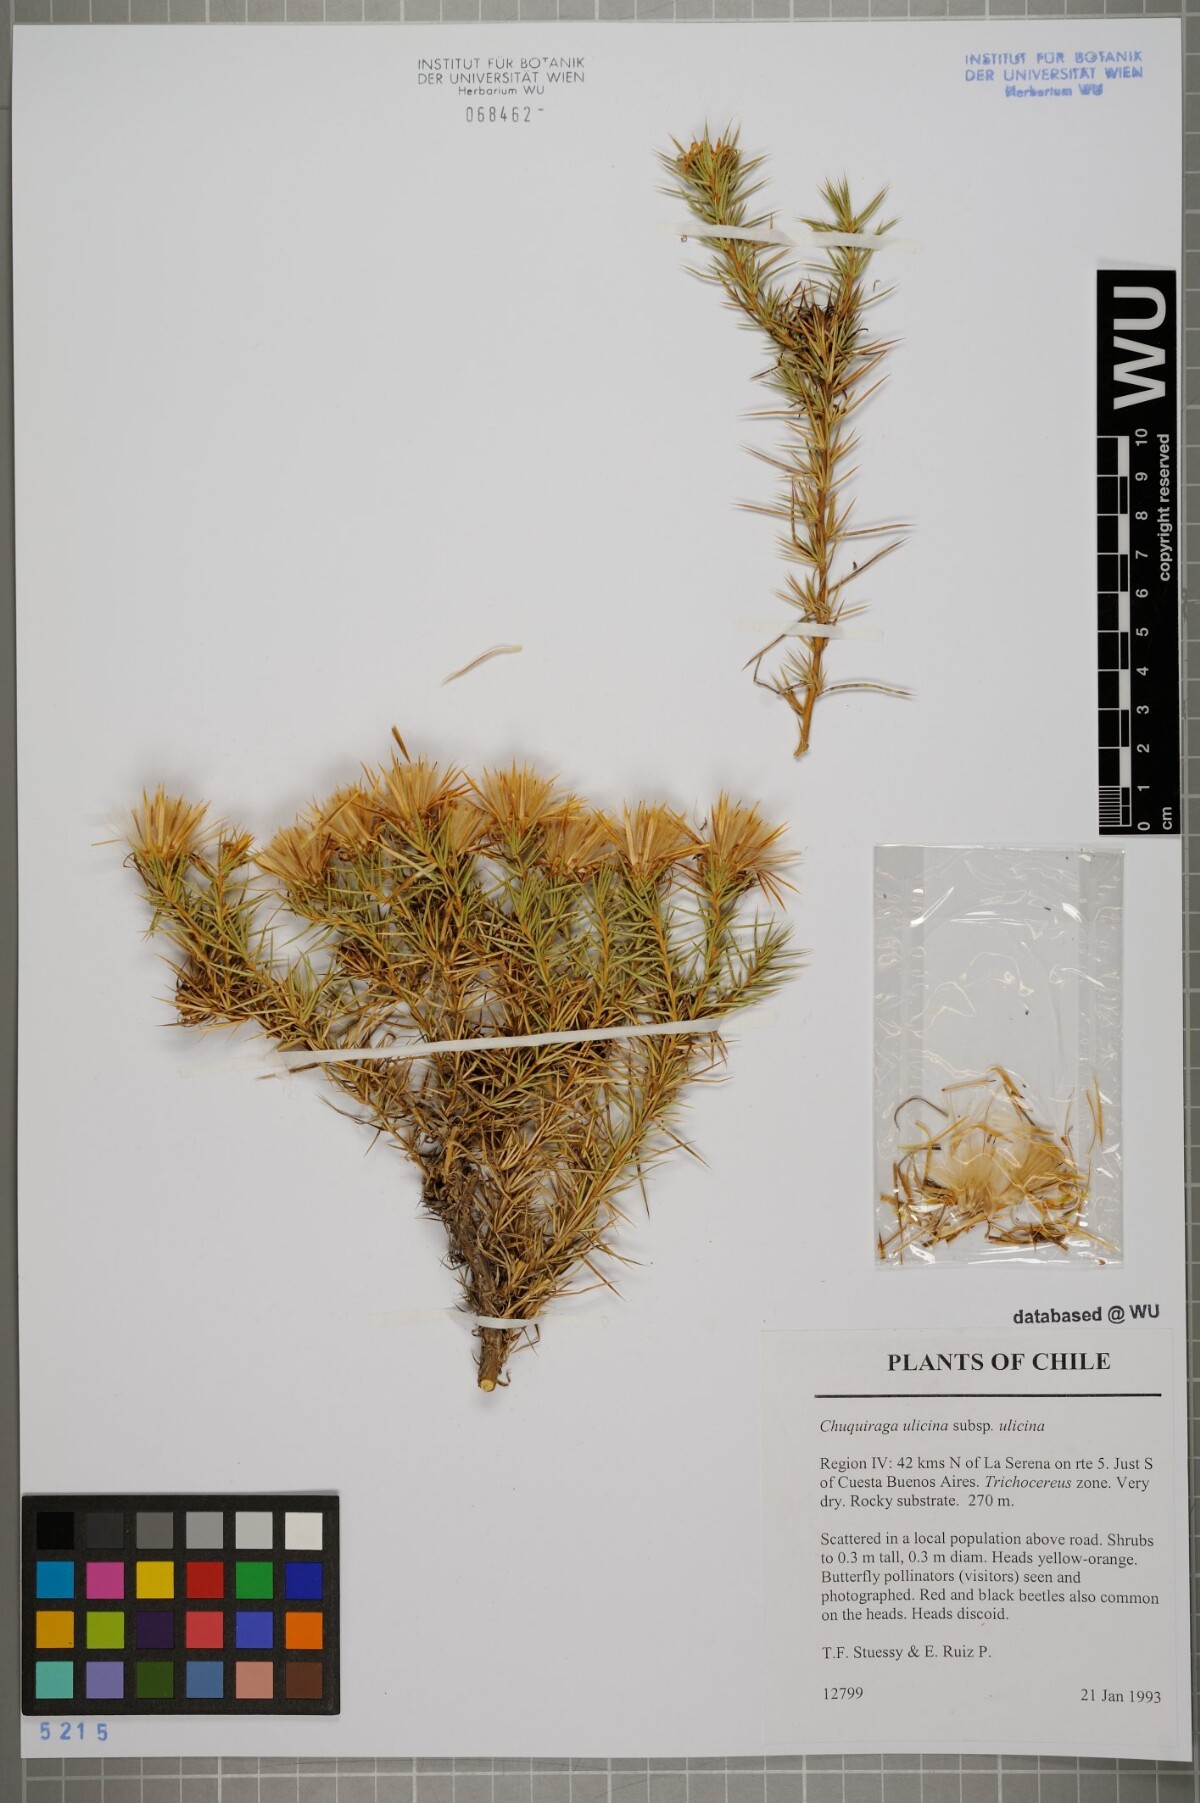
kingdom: Plantae
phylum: Tracheophyta
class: Magnoliopsida
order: Asterales
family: Asteraceae
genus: Chuquiraga
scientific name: Chuquiraga ulicina
